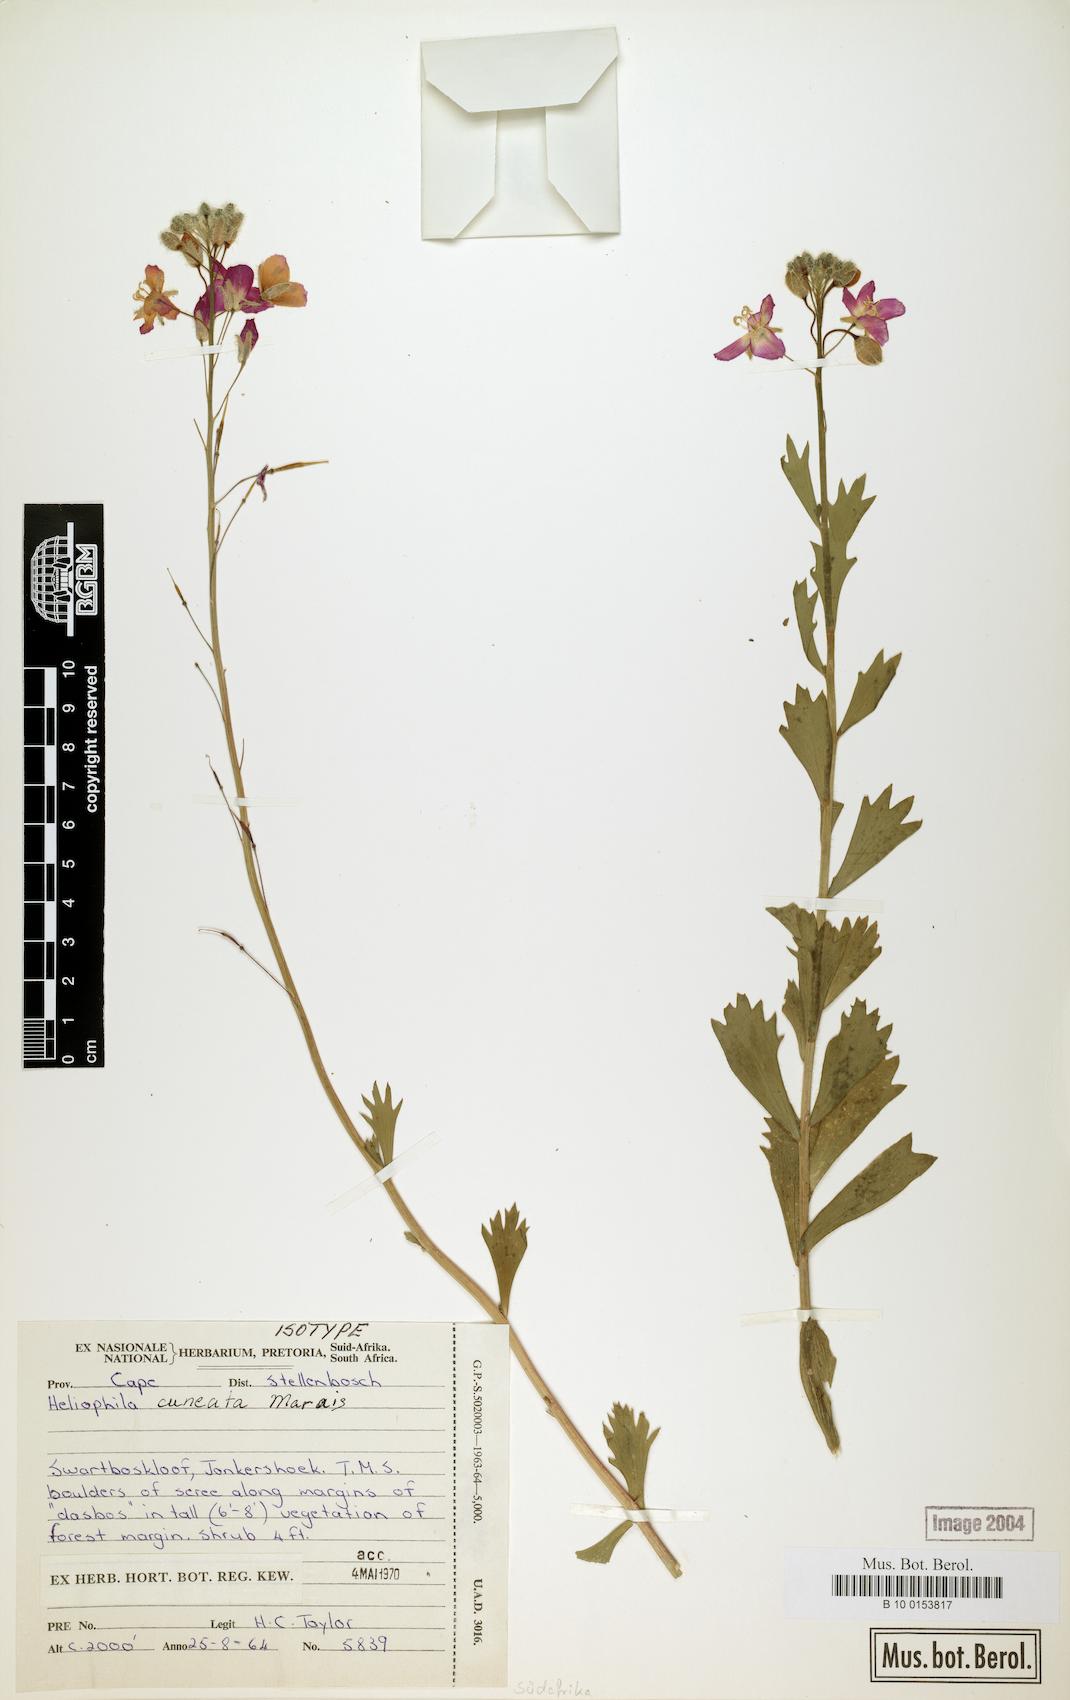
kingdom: Plantae
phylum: Tracheophyta
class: Magnoliopsida
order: Brassicales
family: Brassicaceae
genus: Heliophila
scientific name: Heliophila cuneata
